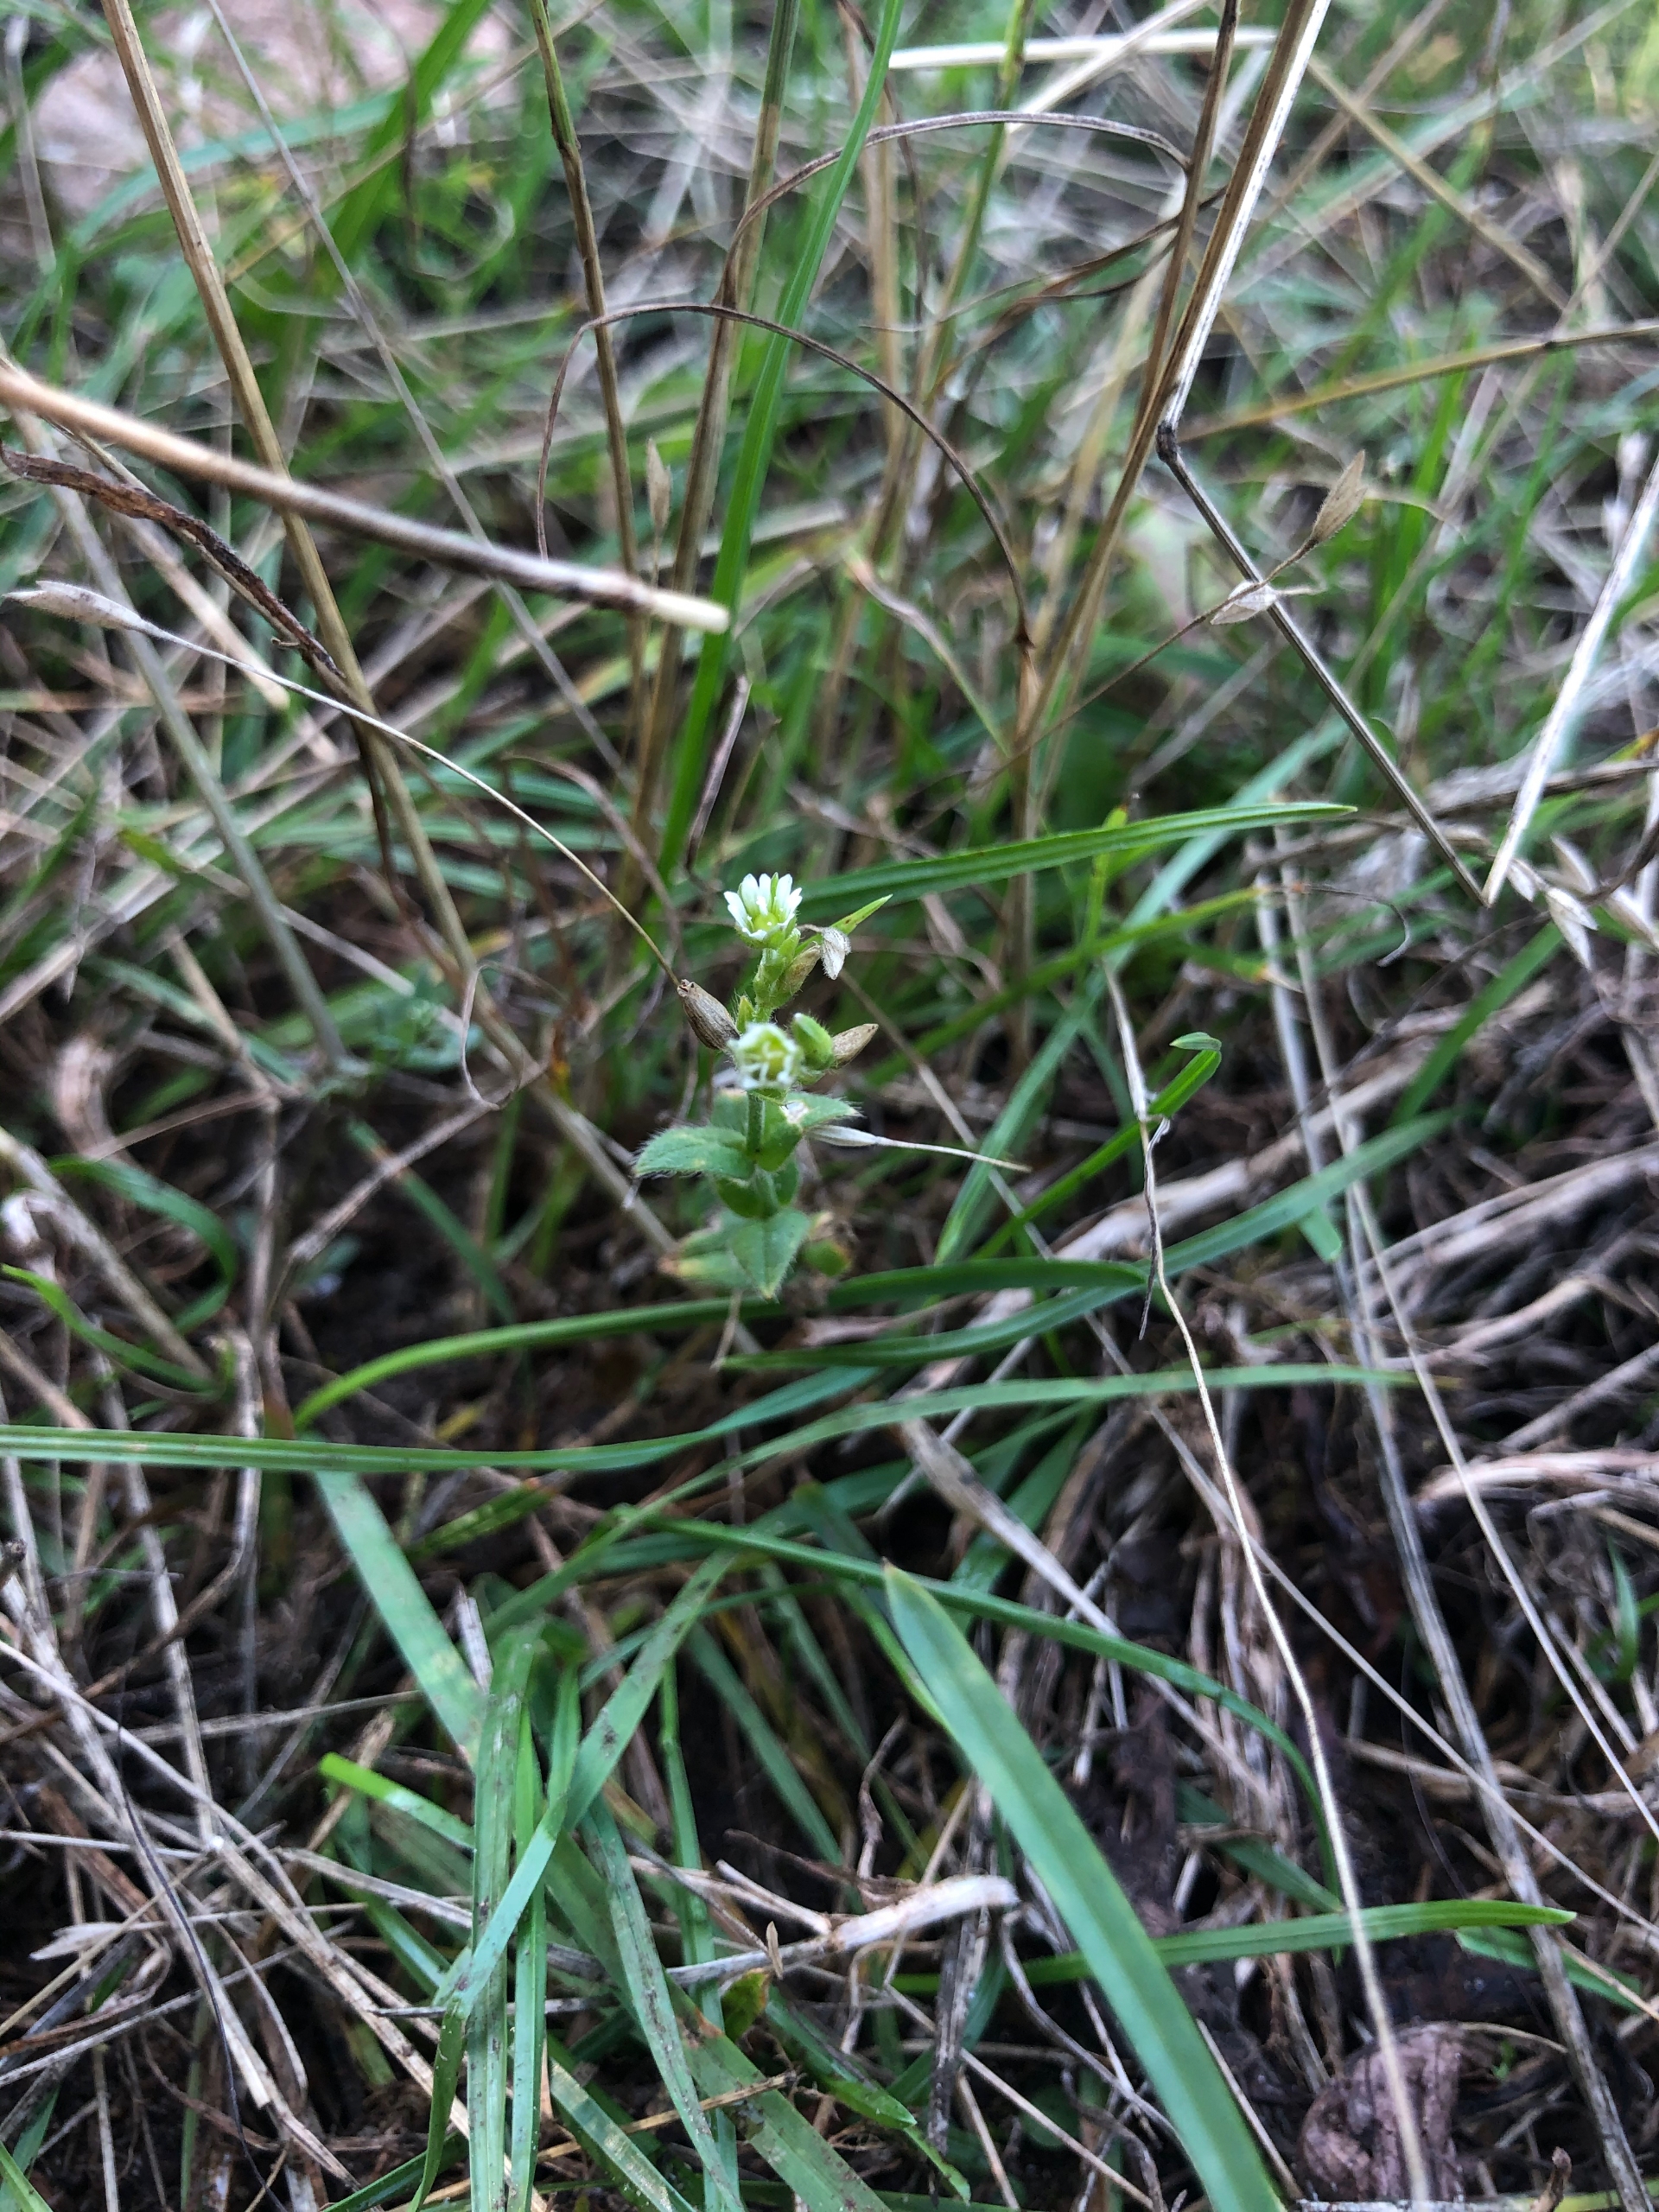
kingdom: Plantae
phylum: Tracheophyta
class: Magnoliopsida
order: Caryophyllales
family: Caryophyllaceae
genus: Cerastium
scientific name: Cerastium fontanum
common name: Almindelig hønsetarm
